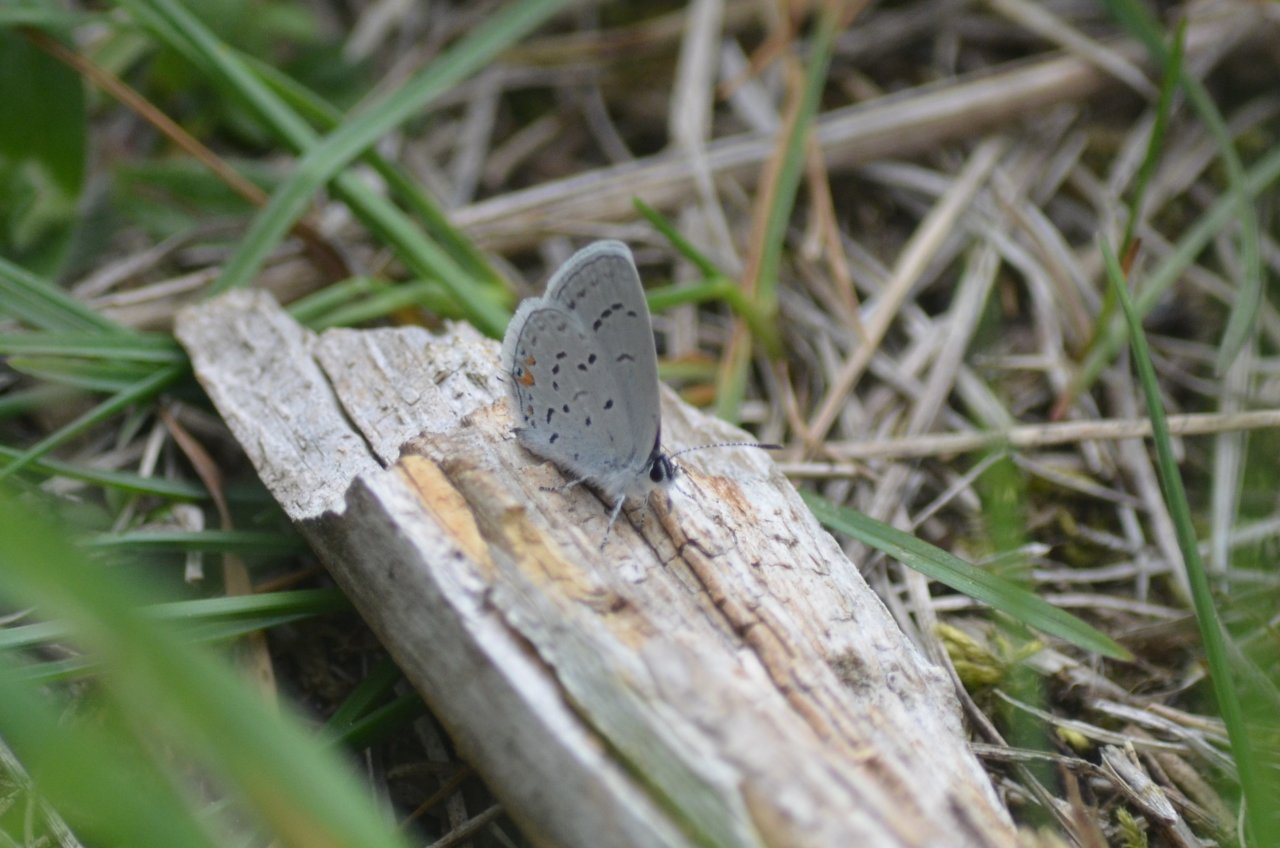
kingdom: Animalia
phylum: Arthropoda
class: Insecta
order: Lepidoptera
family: Lycaenidae
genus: Elkalyce
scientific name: Elkalyce comyntas
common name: Eastern Tailed-Blue
